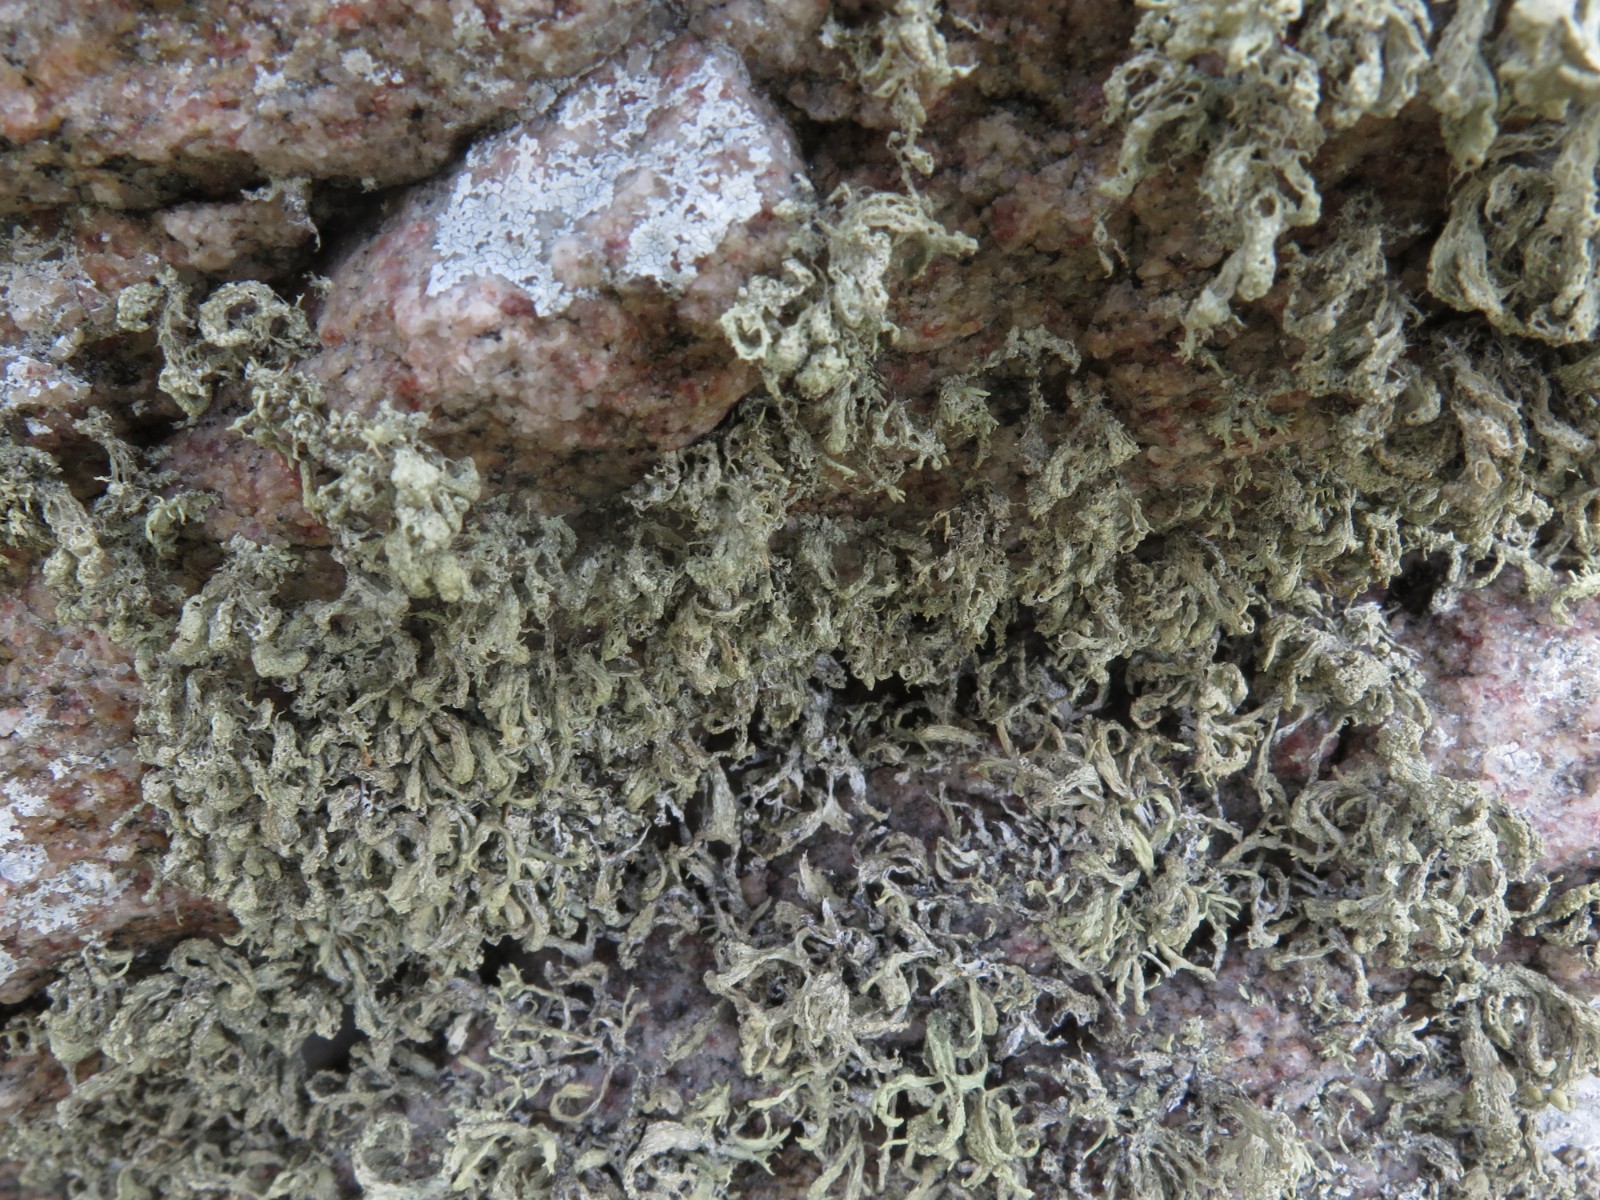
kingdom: Fungi
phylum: Ascomycota
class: Lecanoromycetes
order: Lecanorales
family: Ramalinaceae
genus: Ramalina
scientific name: Ramalina siliquosa
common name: klippe-grenlav
